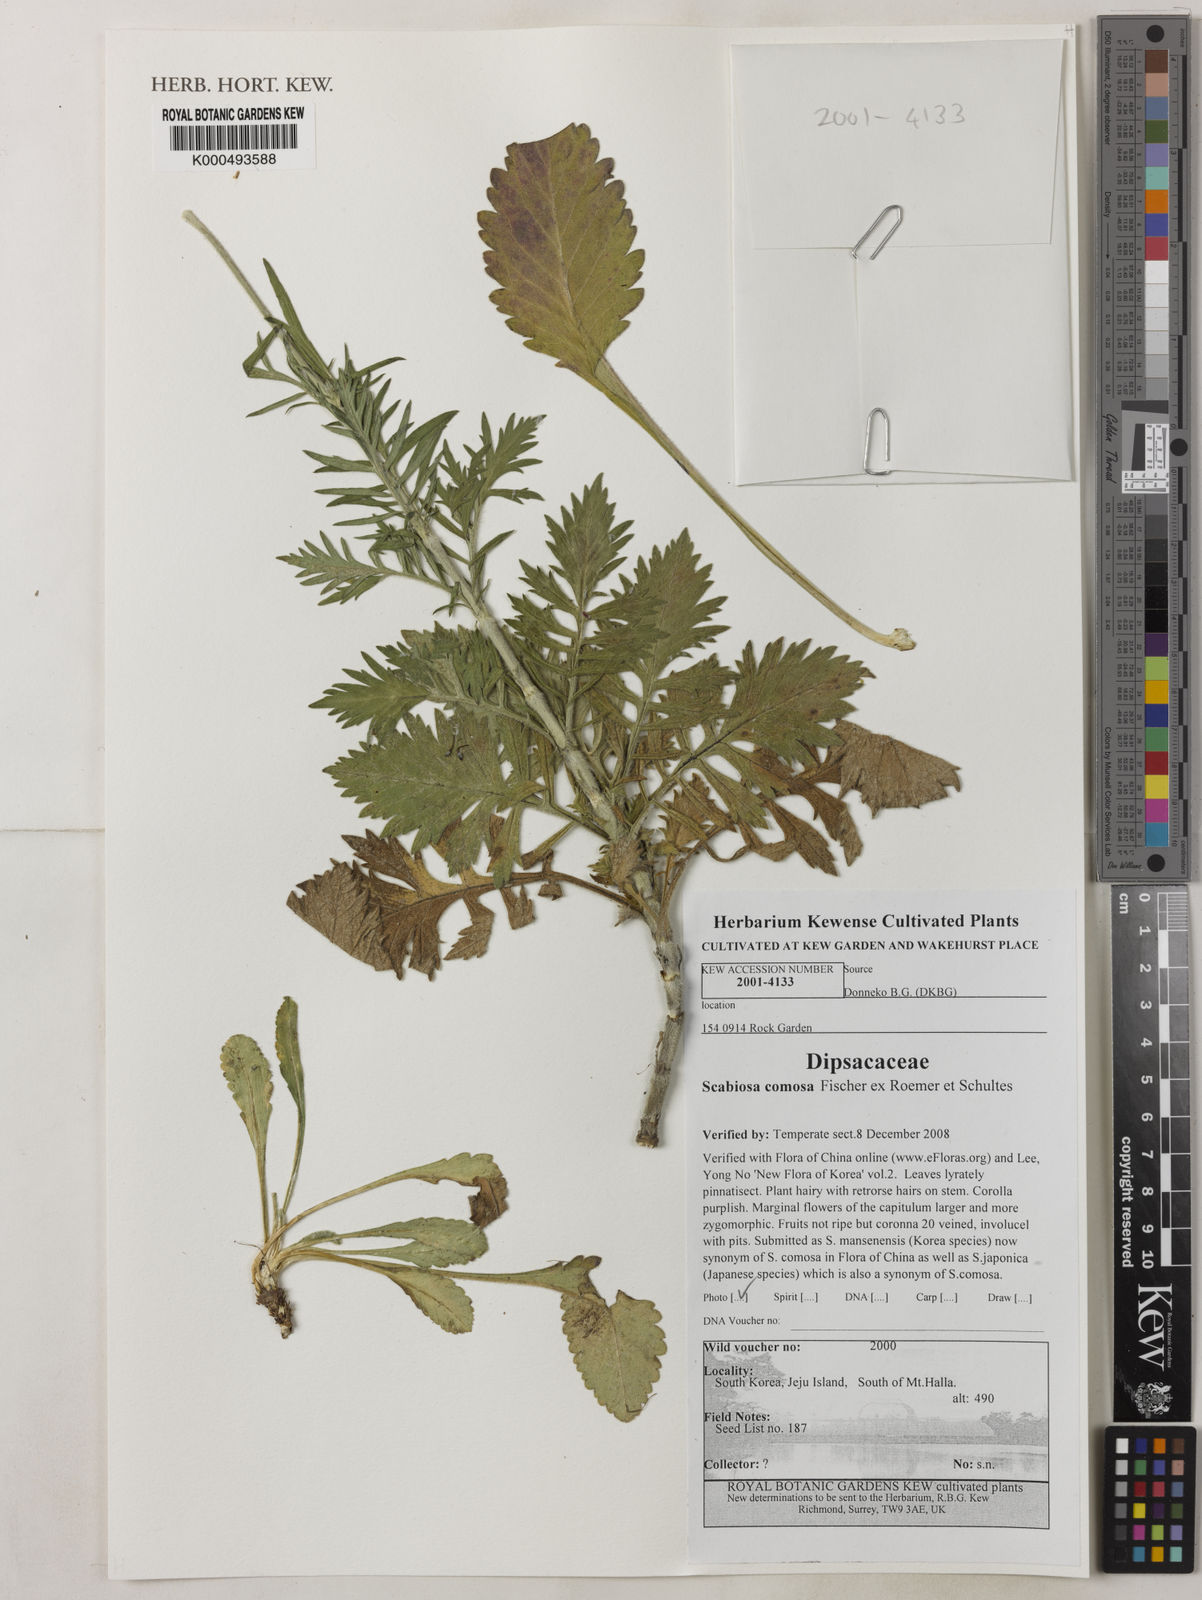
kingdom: Plantae
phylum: Tracheophyta
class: Magnoliopsida
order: Dipsacales
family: Caprifoliaceae
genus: Scabiosa
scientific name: Scabiosa
